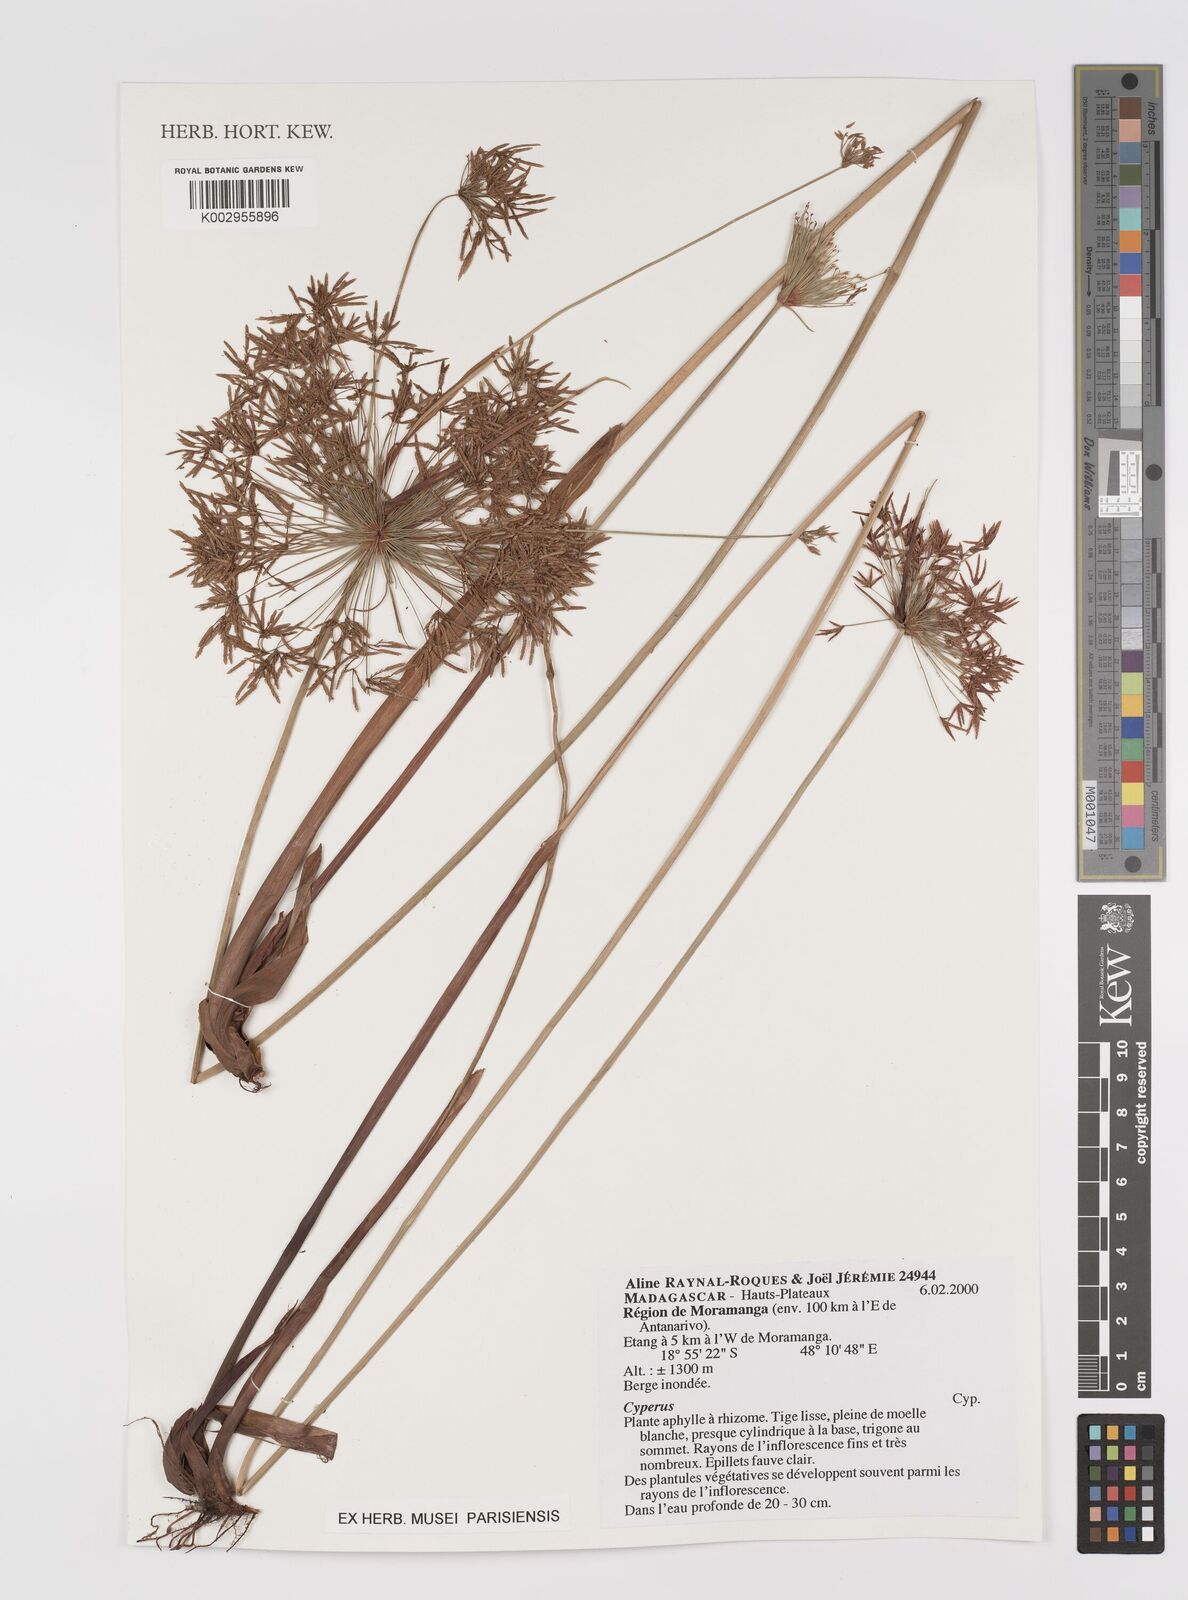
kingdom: Plantae
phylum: Tracheophyta
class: Liliopsida
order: Poales
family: Cyperaceae
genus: Cyperus
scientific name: Cyperus
